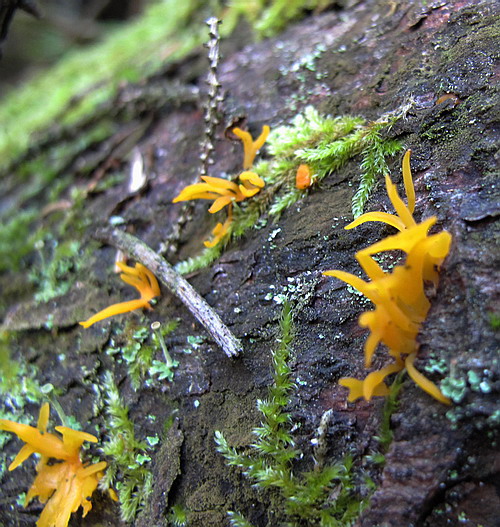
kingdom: Fungi
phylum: Basidiomycota
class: Dacrymycetes
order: Dacrymycetales
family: Dacrymycetaceae
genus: Calocera
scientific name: Calocera furcata
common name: fyrre-guldgaffel
